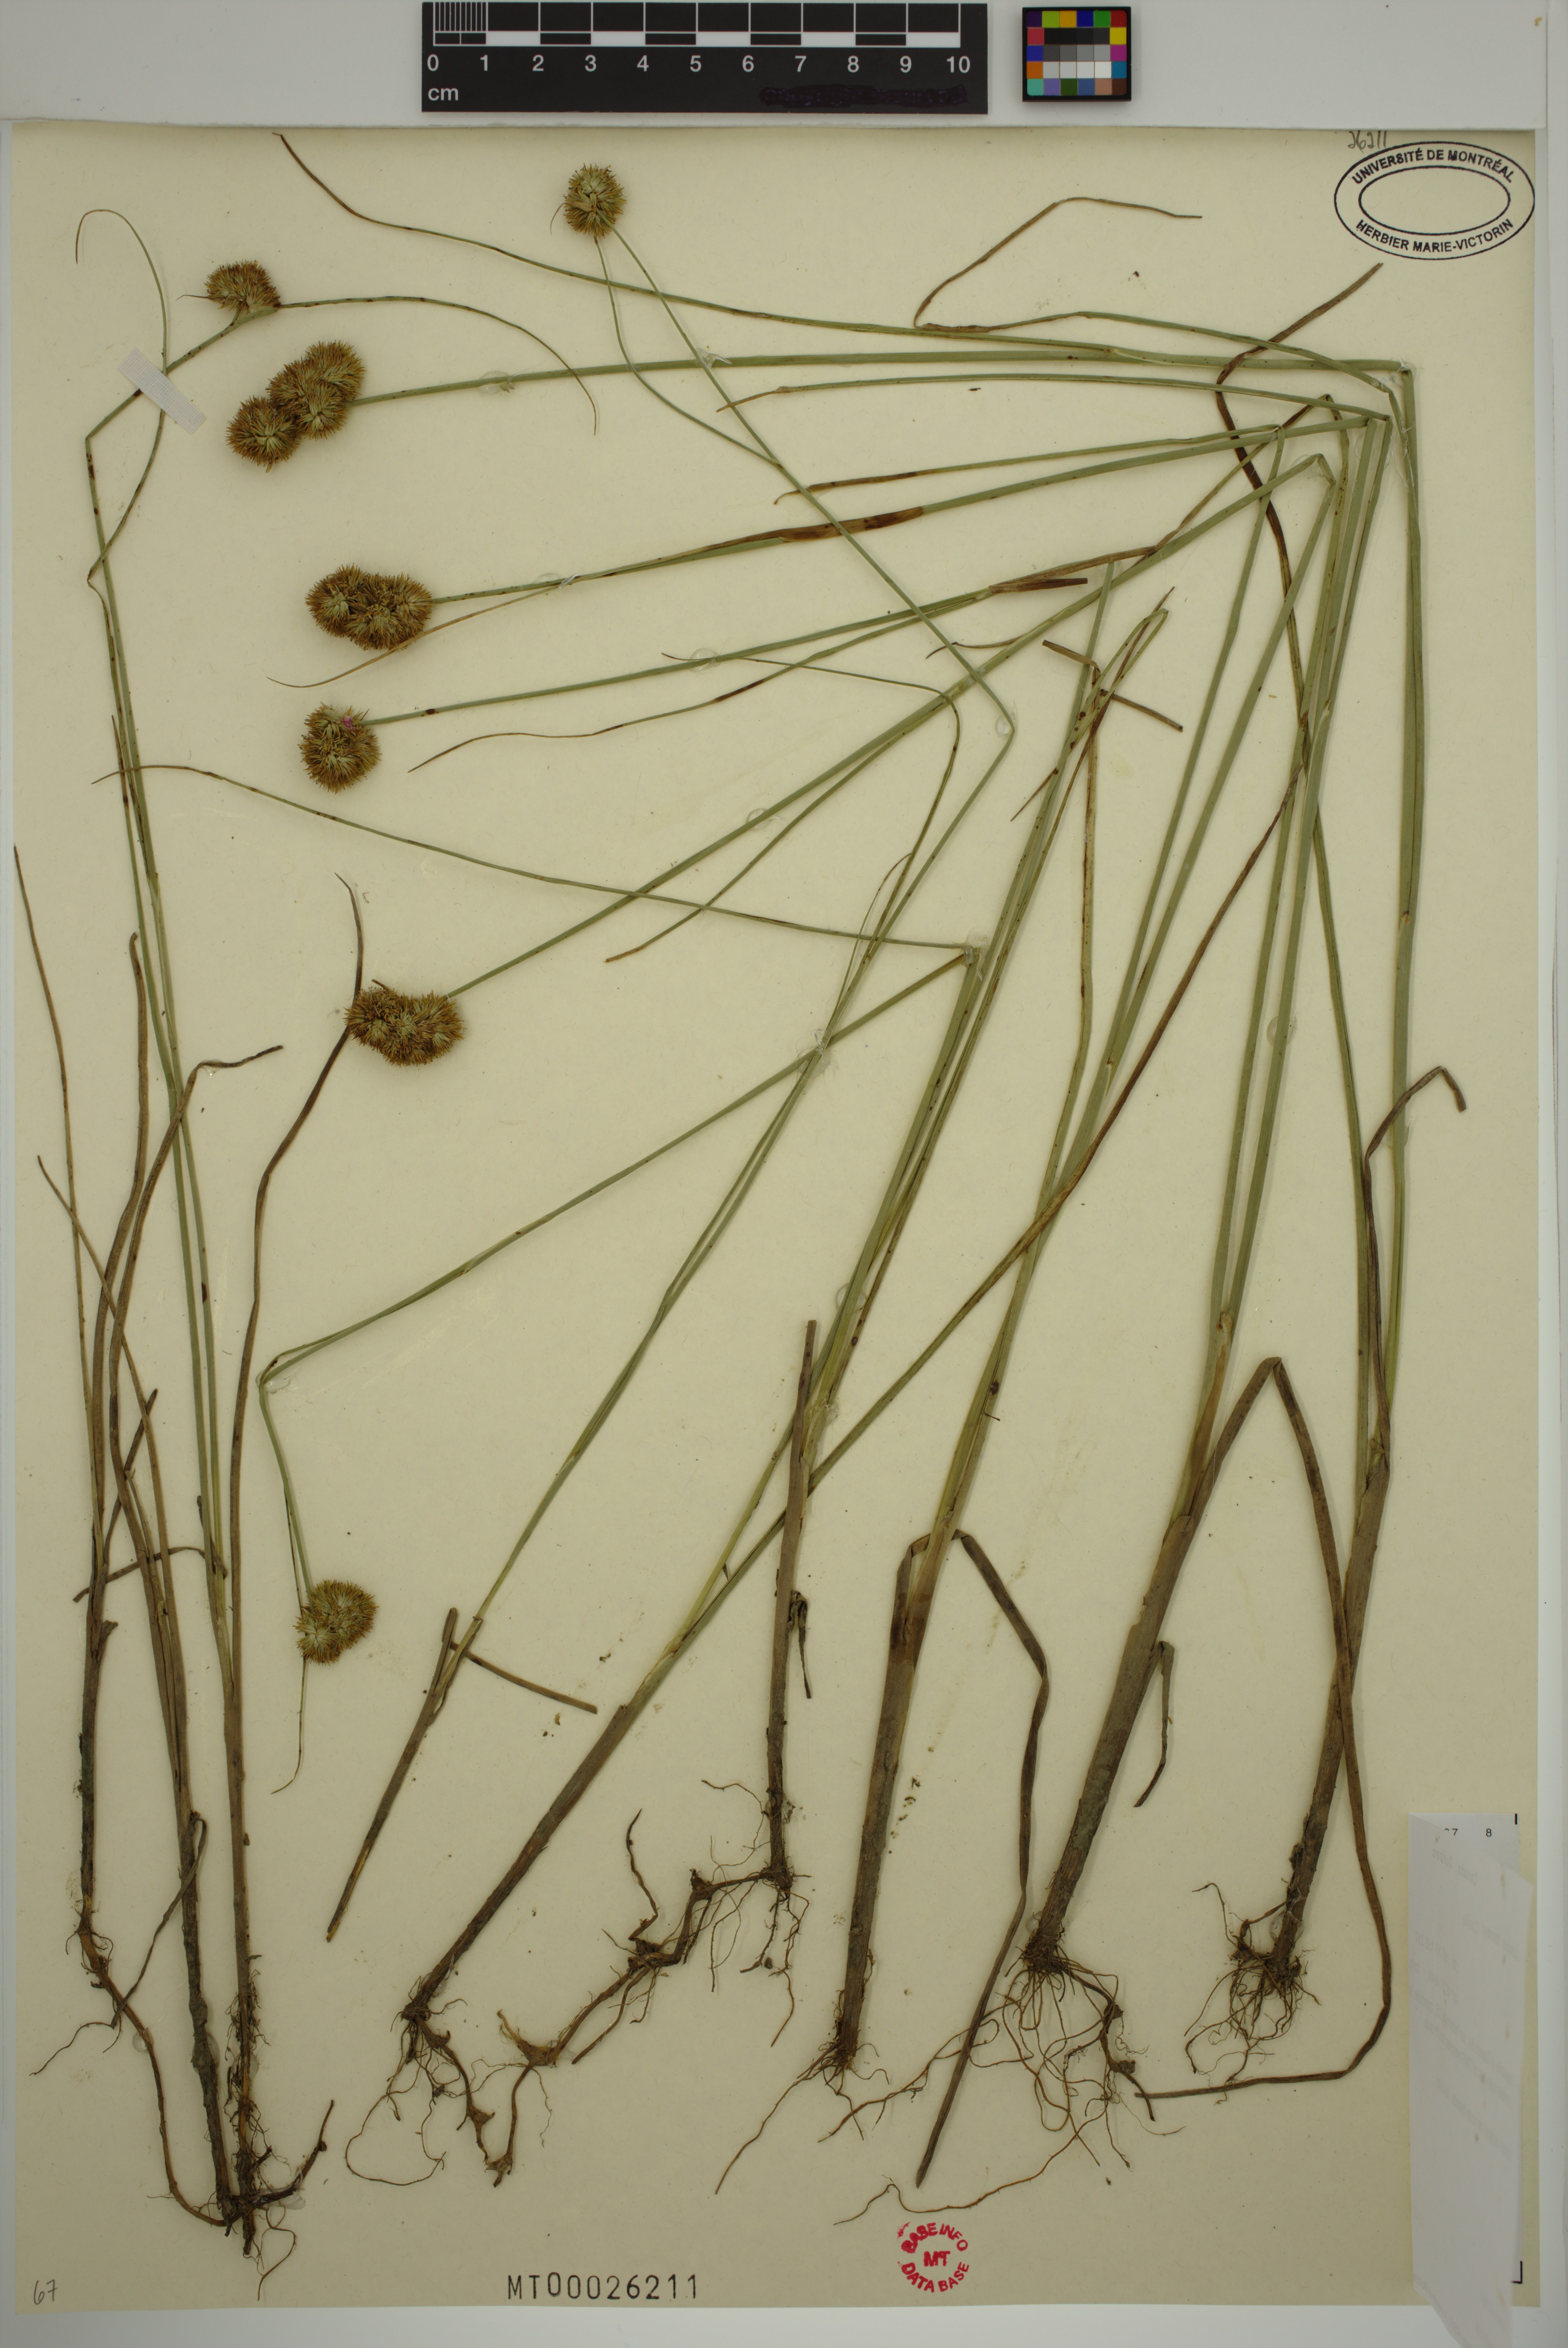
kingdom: Plantae
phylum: Tracheophyta
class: Liliopsida
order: Poales
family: Juncaceae
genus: Juncus
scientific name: Juncus torreyi
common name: Torrey's rush
